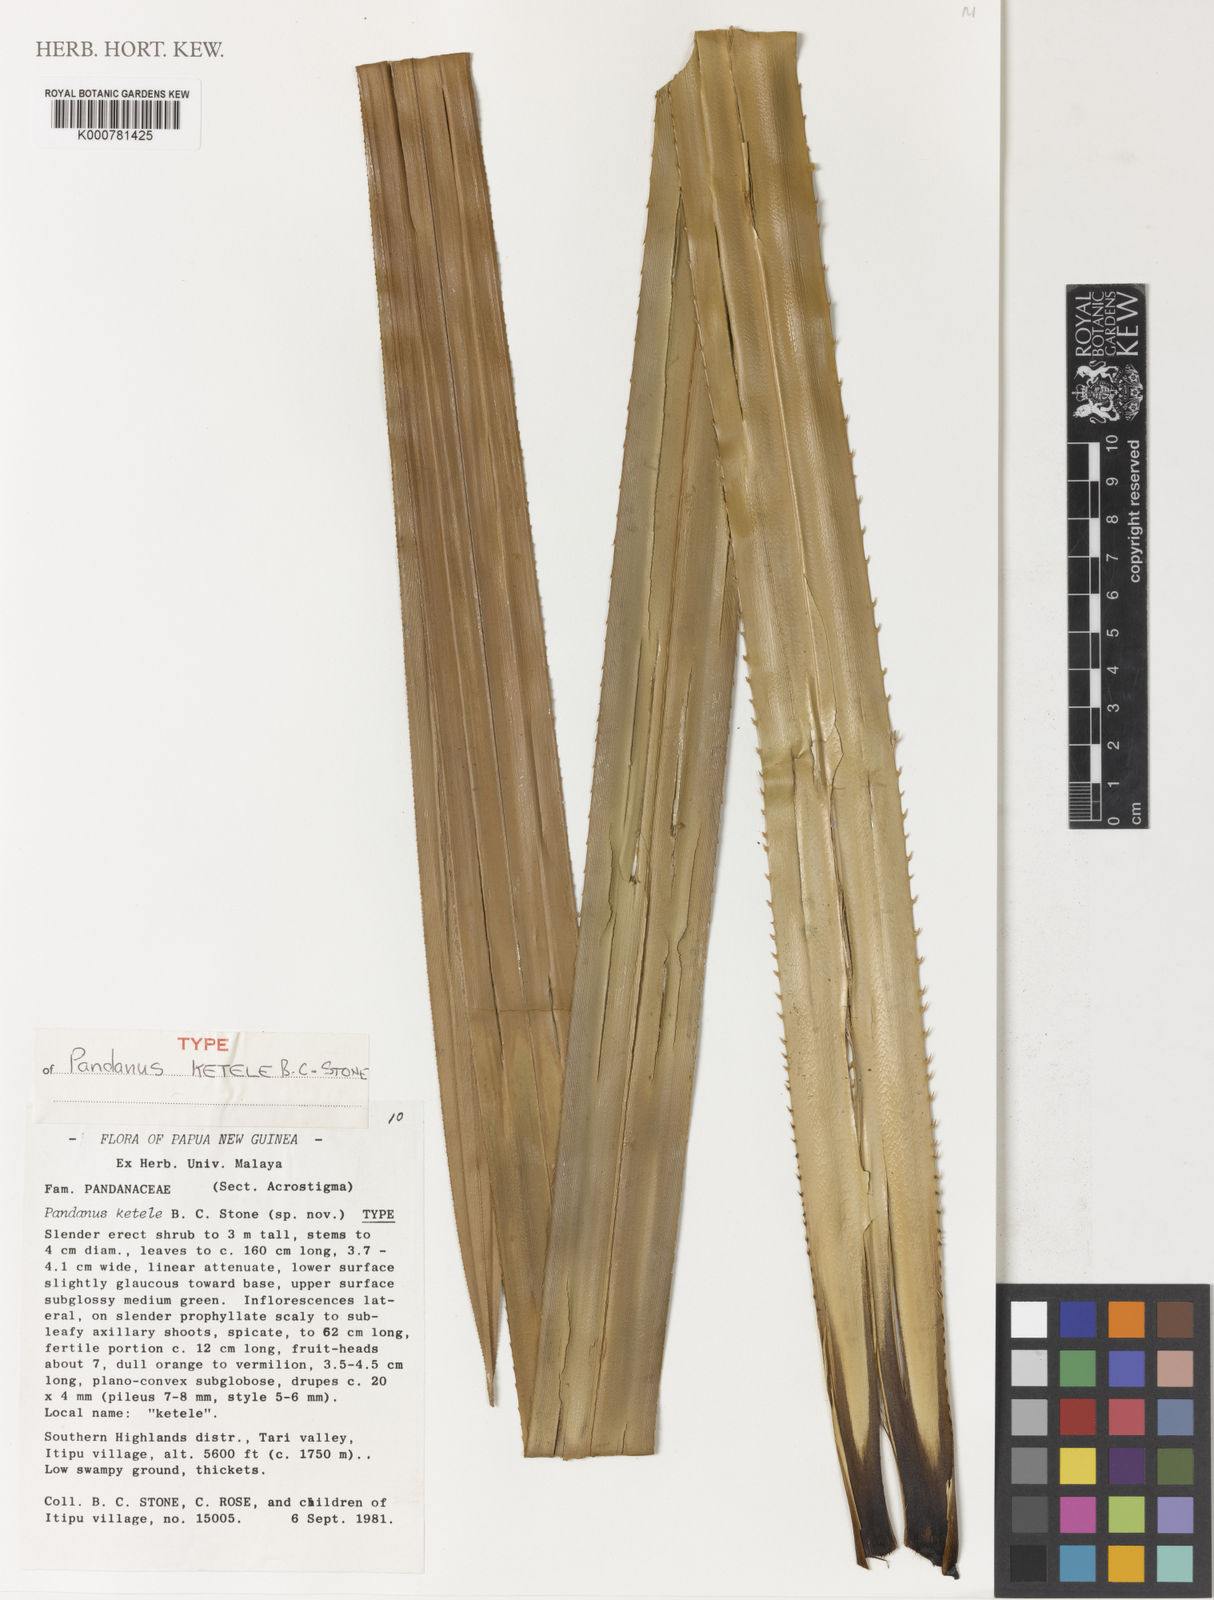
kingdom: Plantae
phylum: Tracheophyta
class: Liliopsida
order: Pandanales
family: Pandanaceae
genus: Pandanus
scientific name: Pandanus
